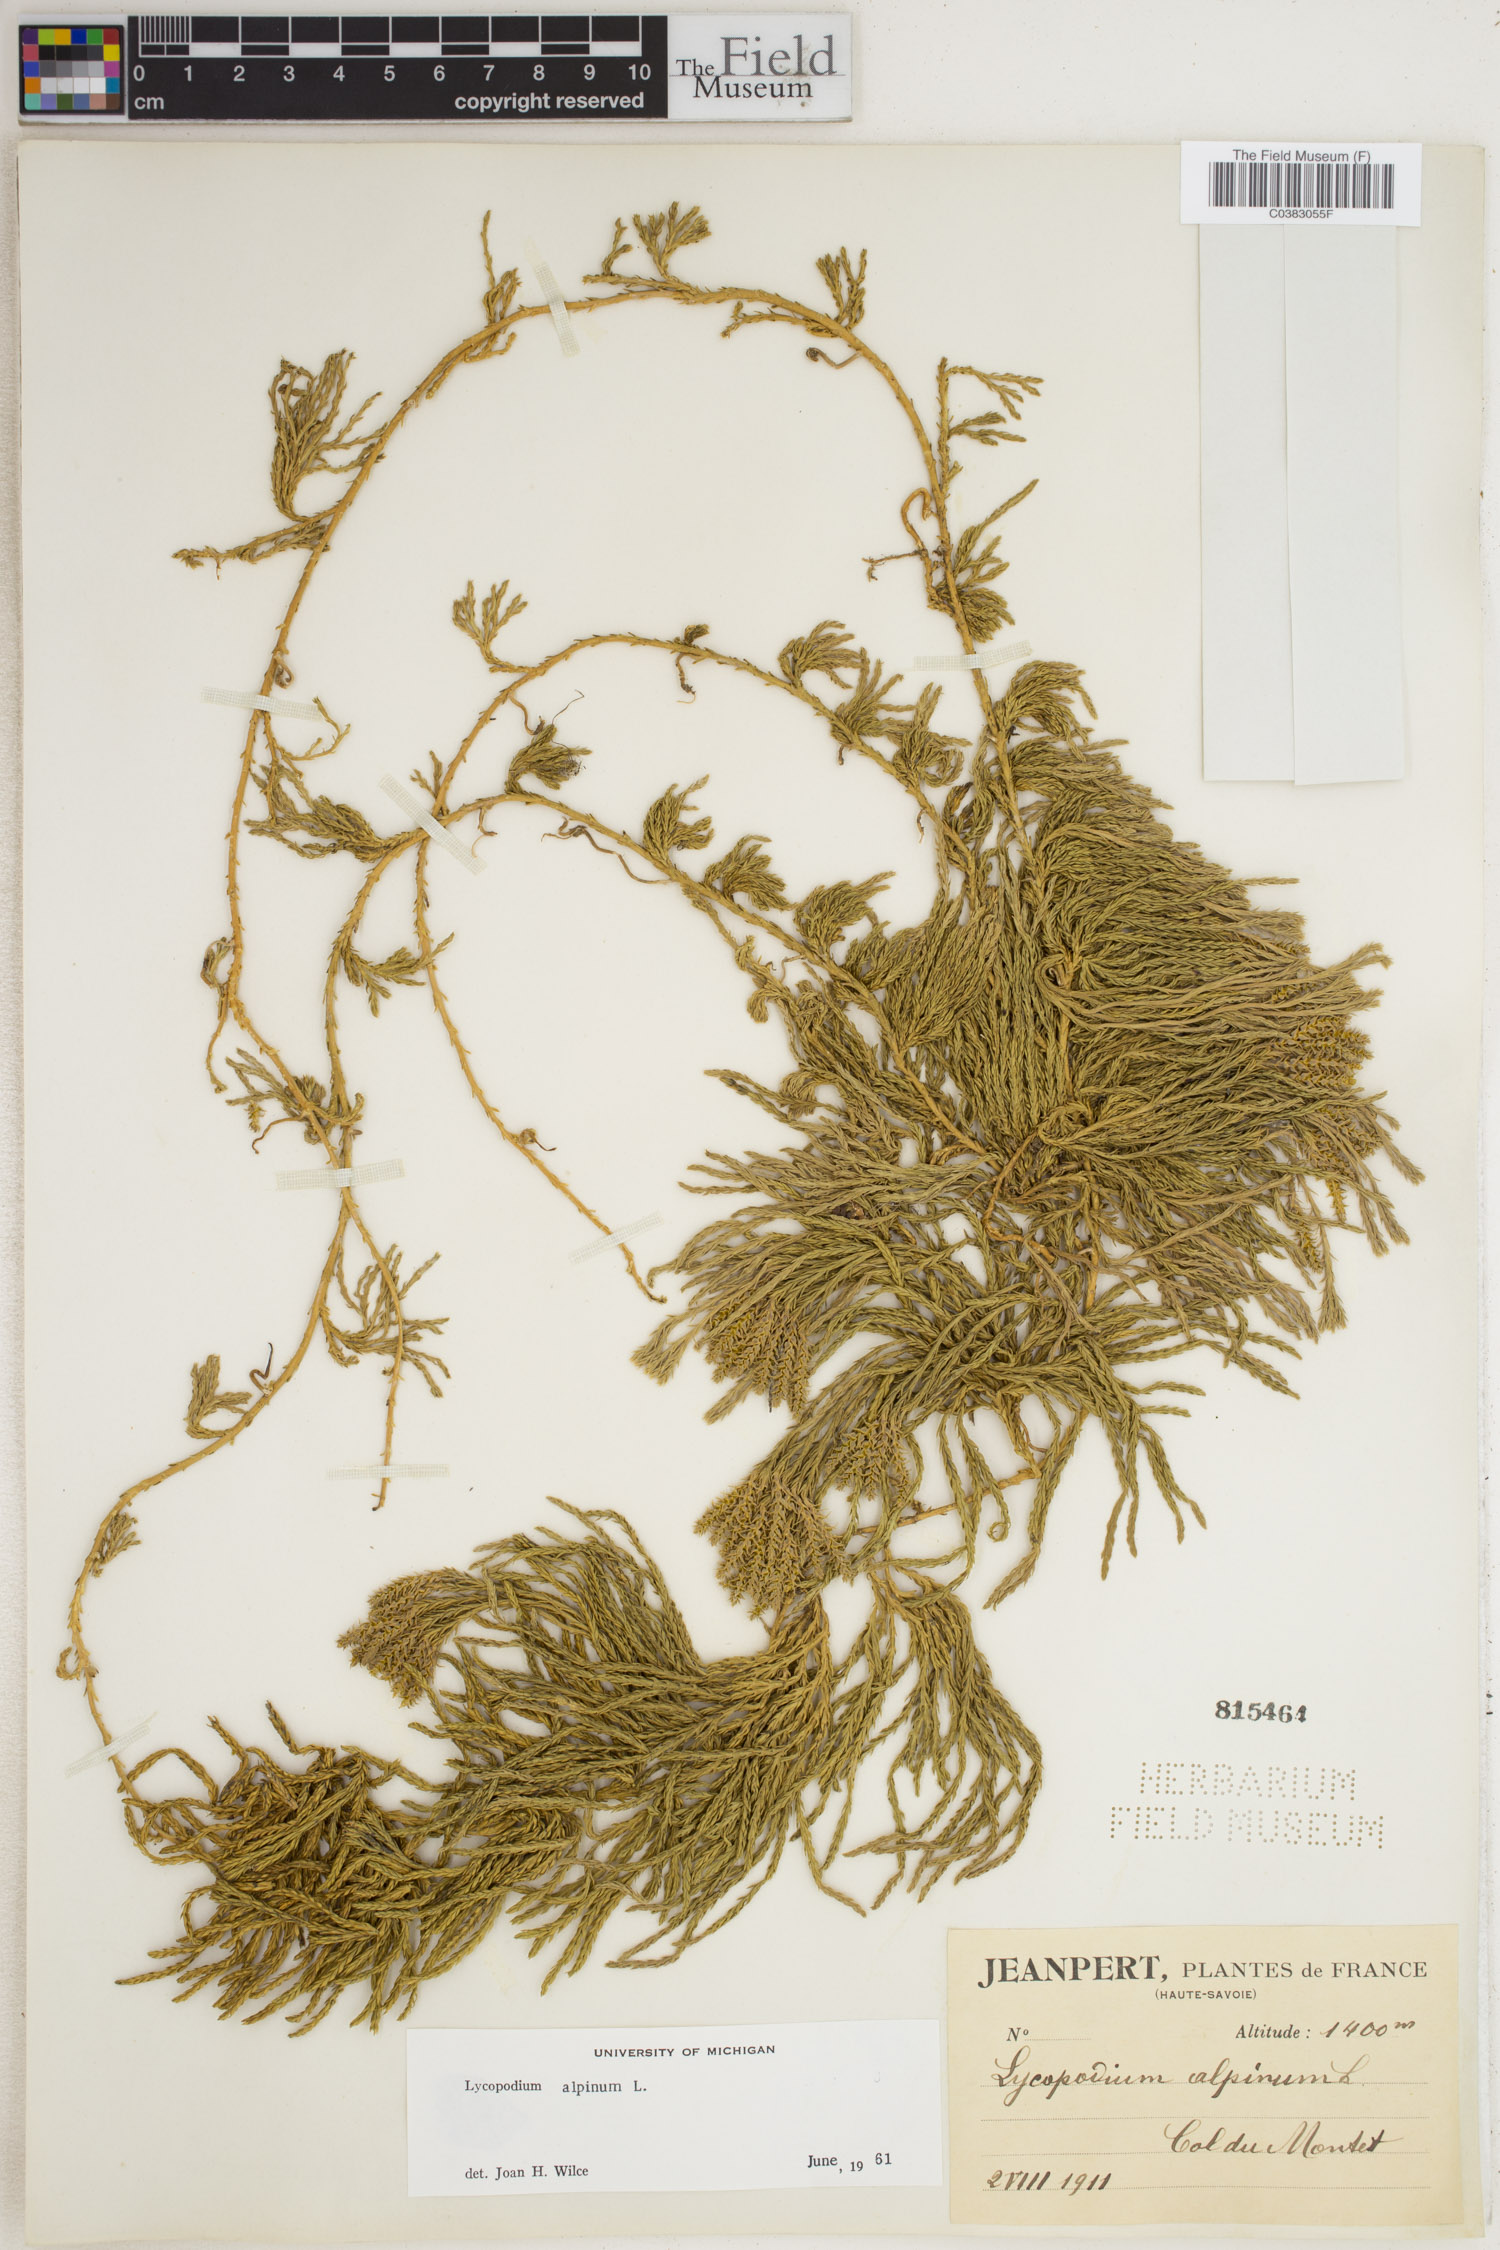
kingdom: Plantae
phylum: Tracheophyta
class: Lycopodiopsida
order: Lycopodiales
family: Lycopodiaceae
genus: Diphasiastrum
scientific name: Diphasiastrum alpinum
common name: Alpine clubmoss
